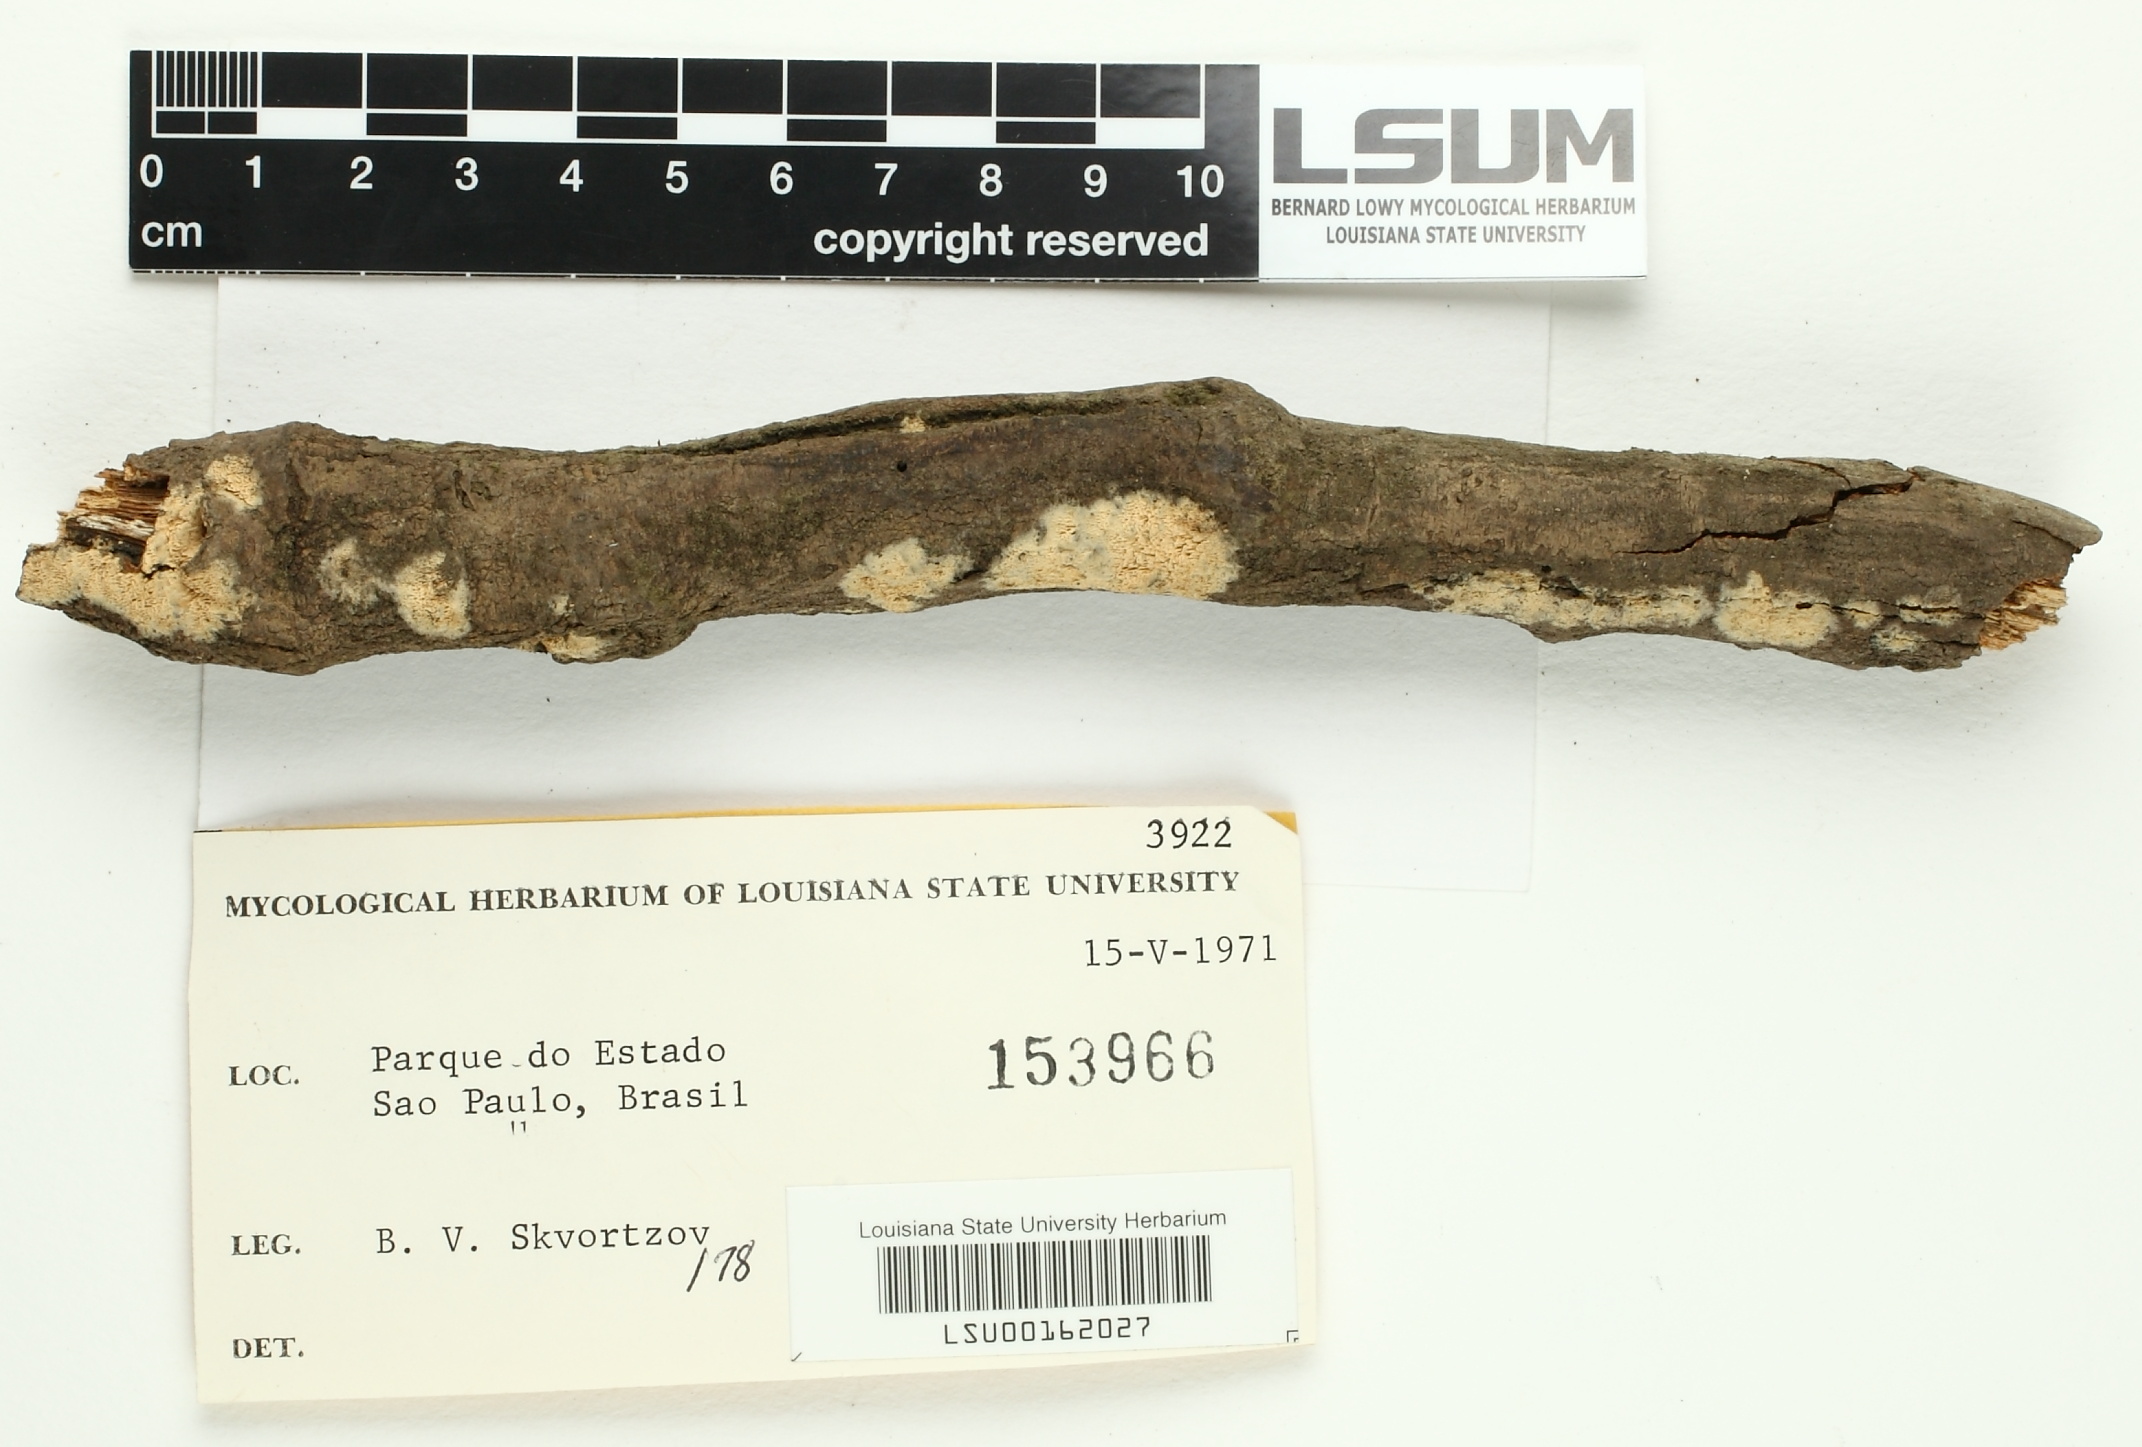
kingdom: Fungi
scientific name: Fungi
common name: Fungi
